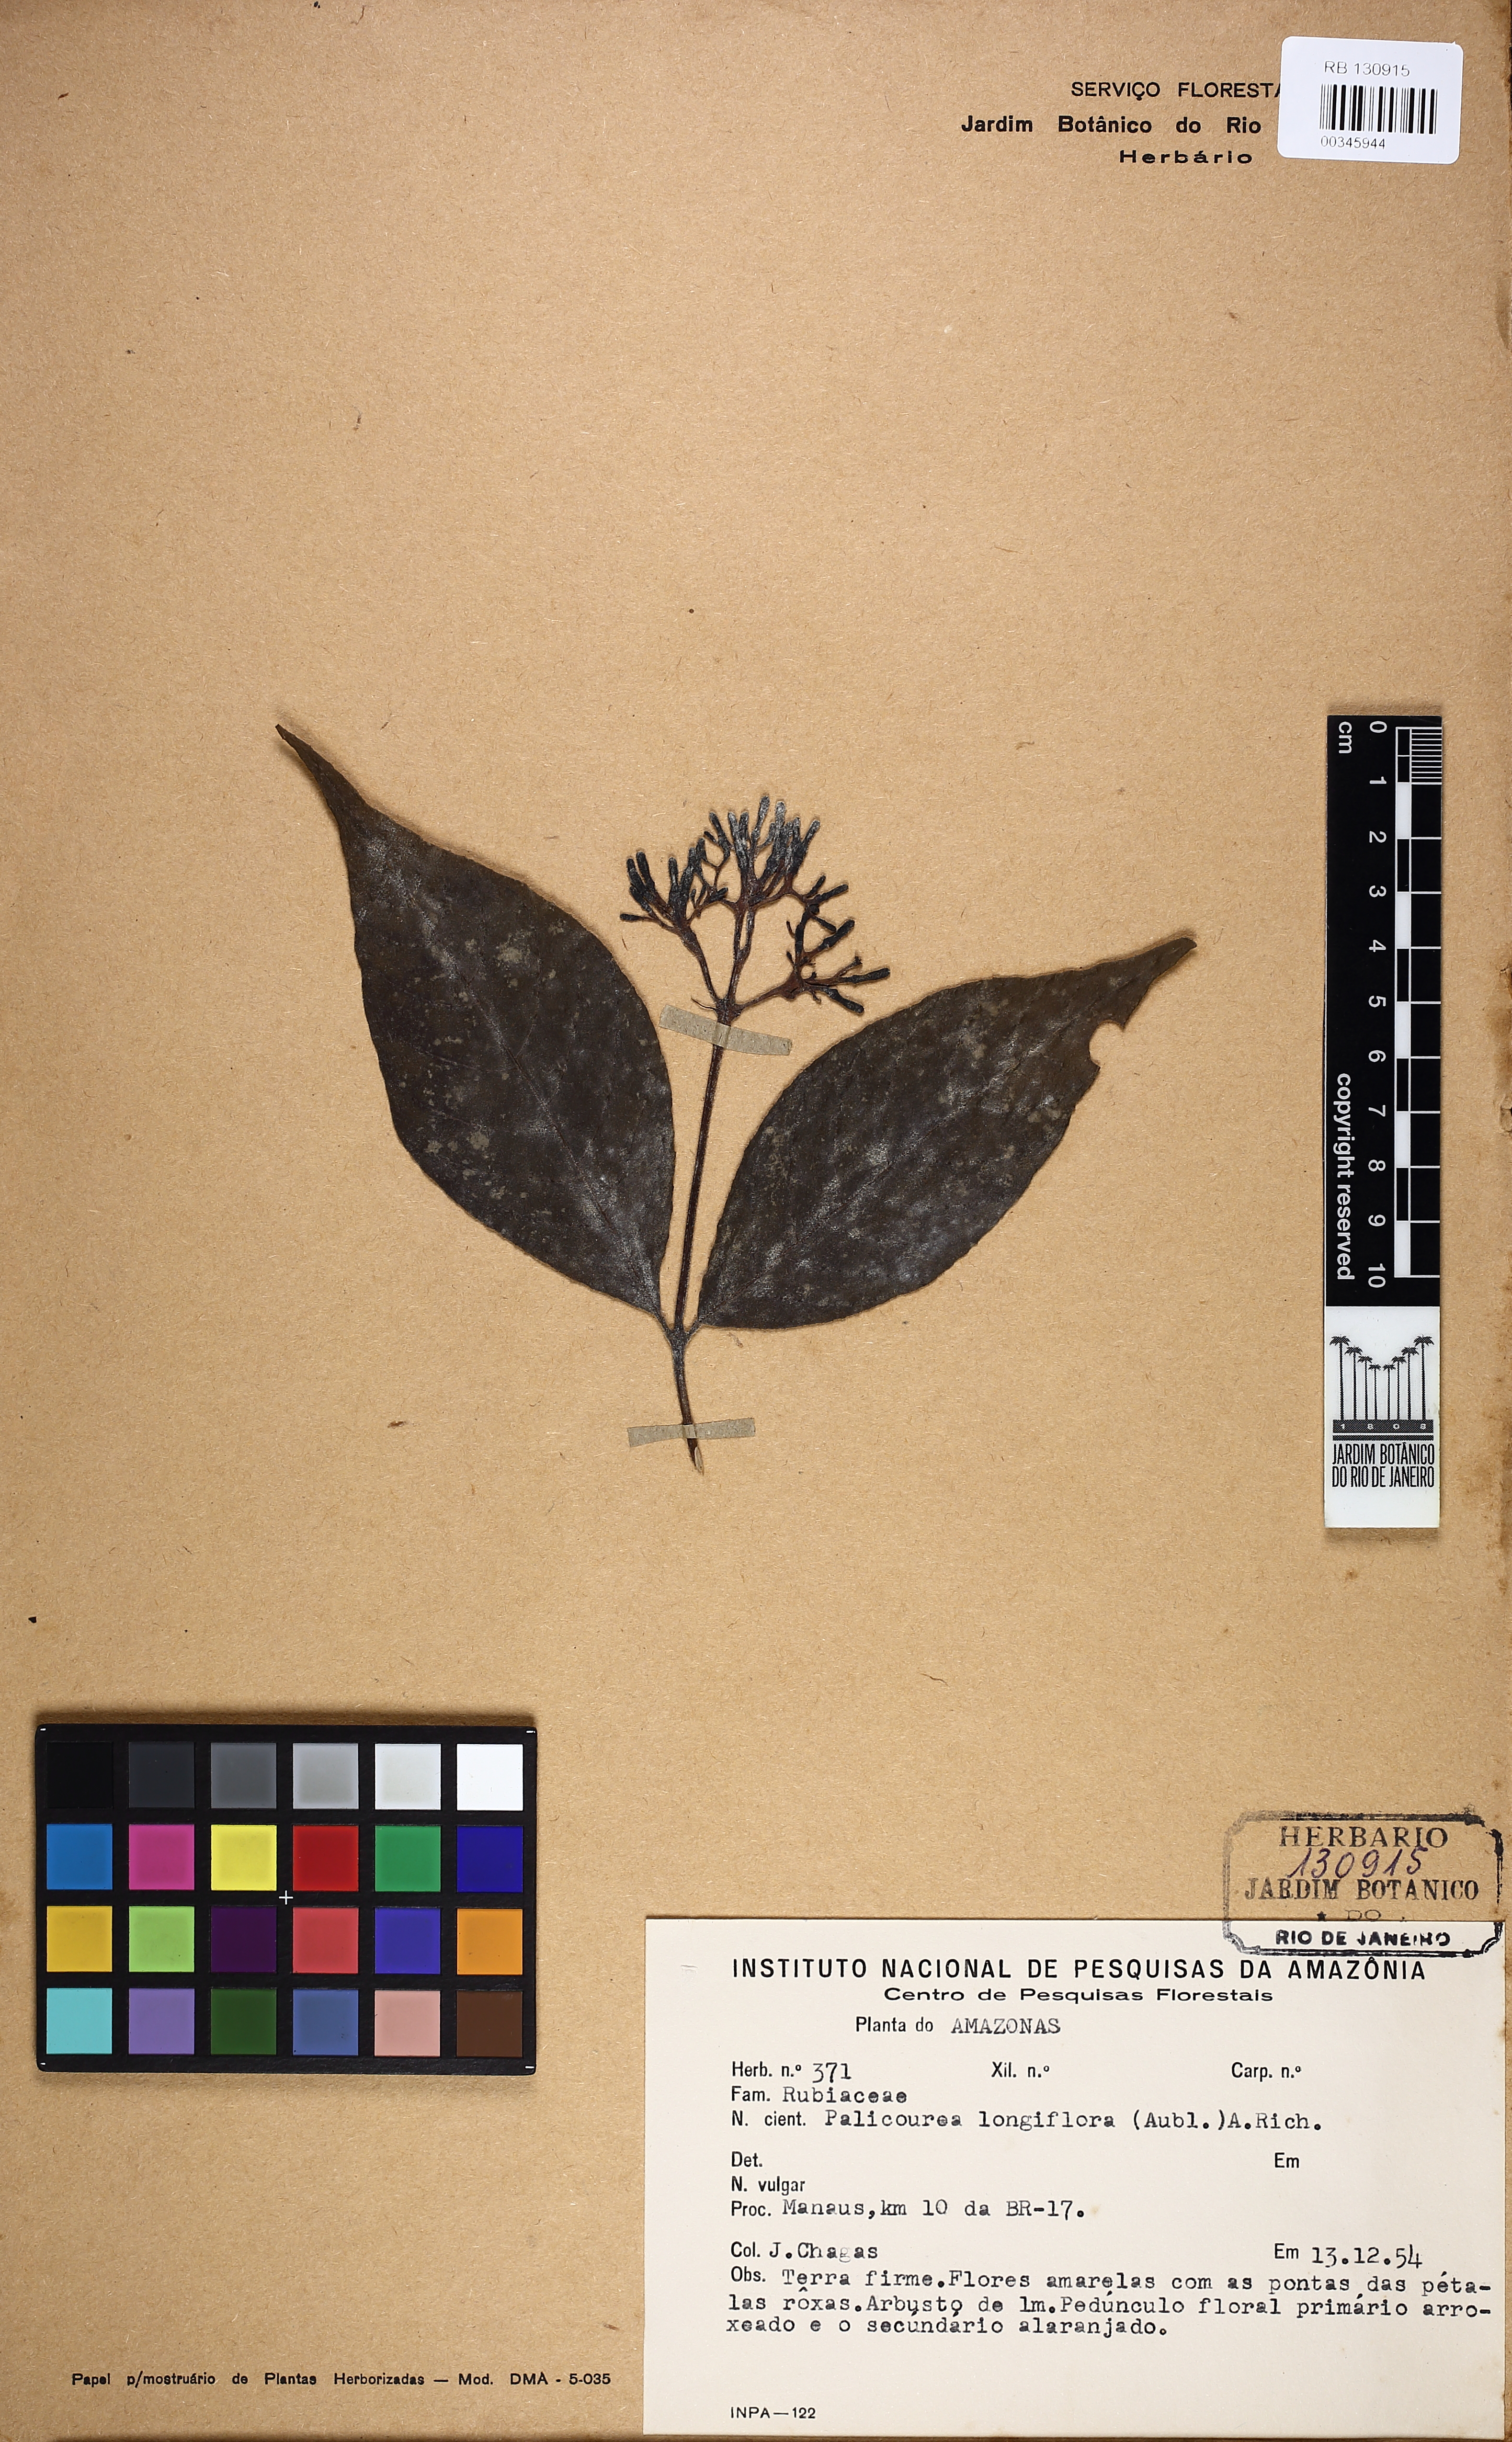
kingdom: Plantae
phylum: Tracheophyta
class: Magnoliopsida
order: Gentianales
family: Rubiaceae
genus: Palicourea
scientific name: Palicourea longiflora
